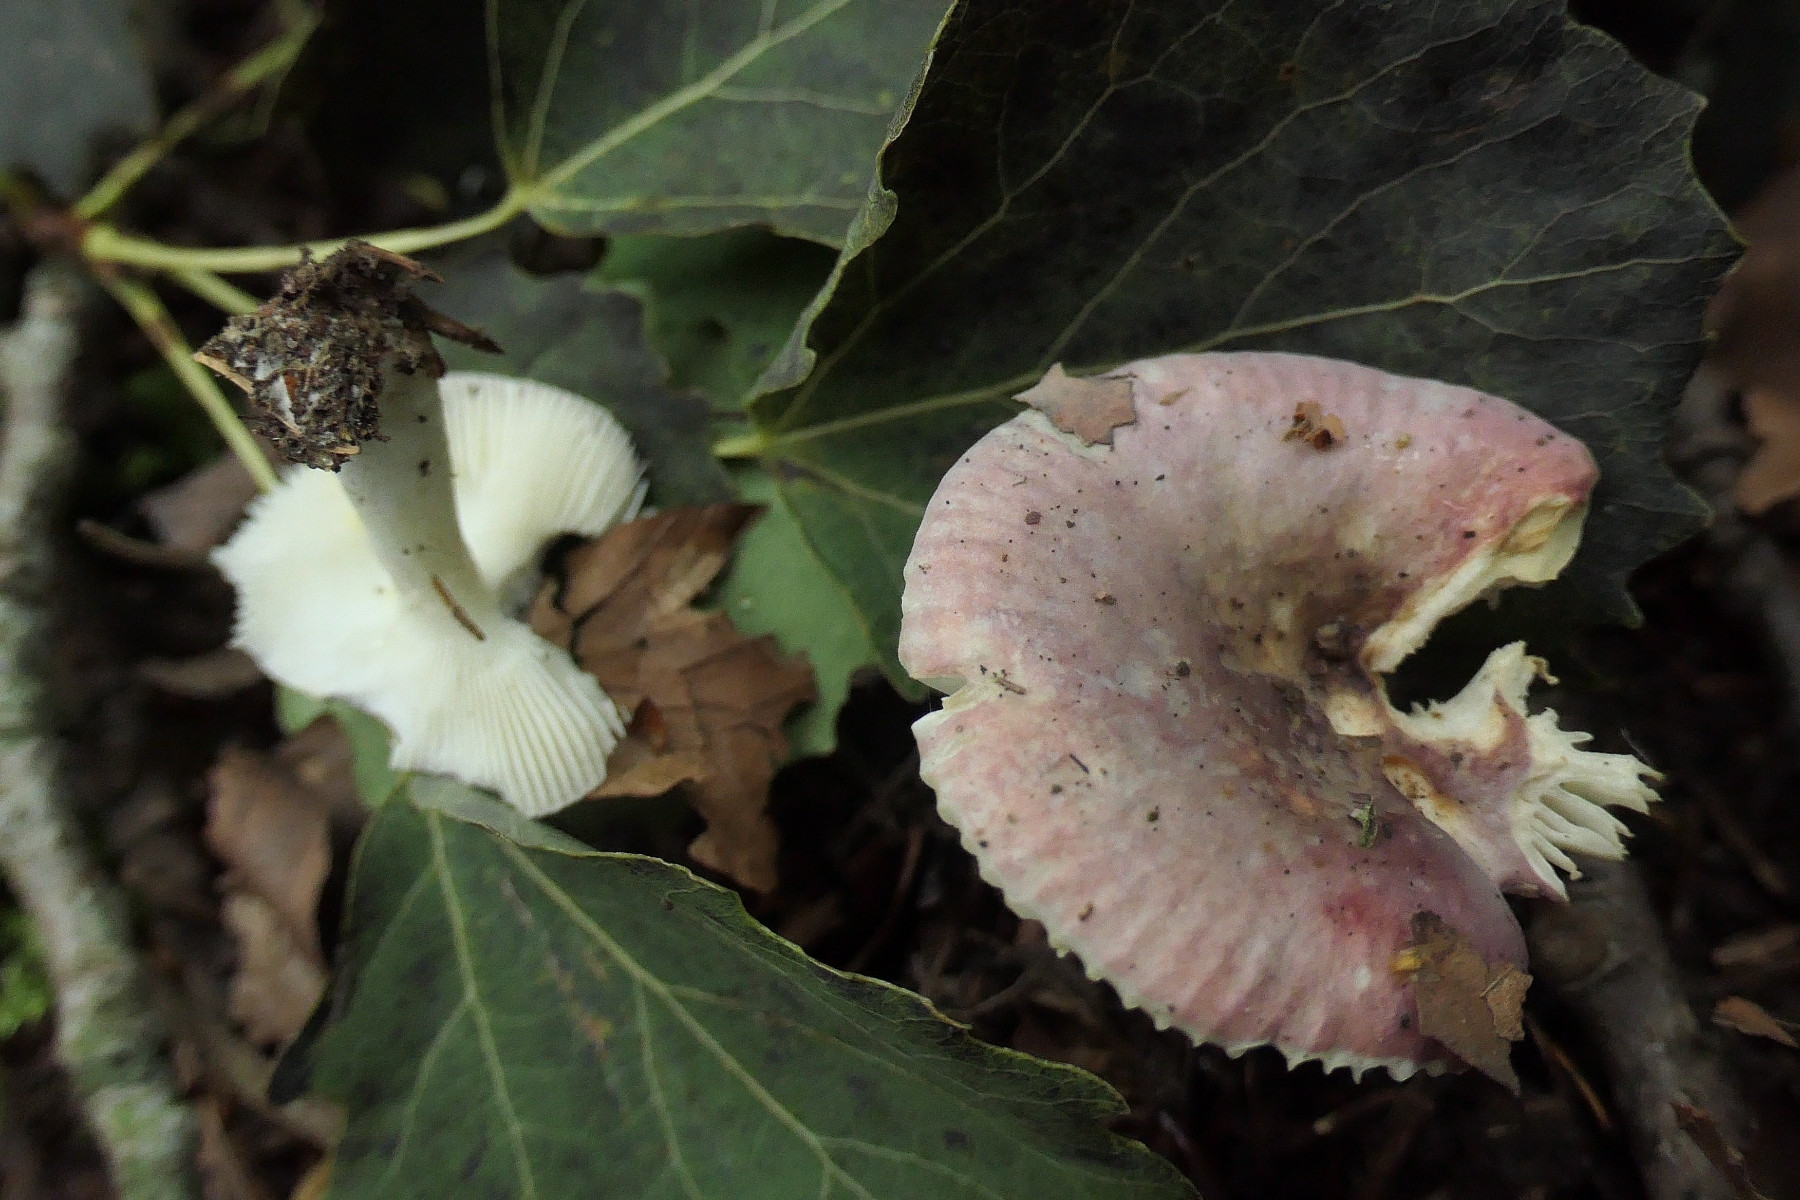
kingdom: Fungi
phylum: Basidiomycota
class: Agaricomycetes
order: Russulales
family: Russulaceae
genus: Russula
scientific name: Russula pelargonia
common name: pelargonie-skørhat
